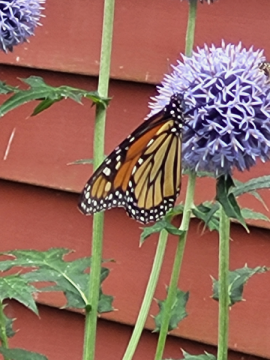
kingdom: Animalia
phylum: Arthropoda
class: Insecta
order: Lepidoptera
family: Nymphalidae
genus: Danaus
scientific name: Danaus plexippus
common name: Monarch
